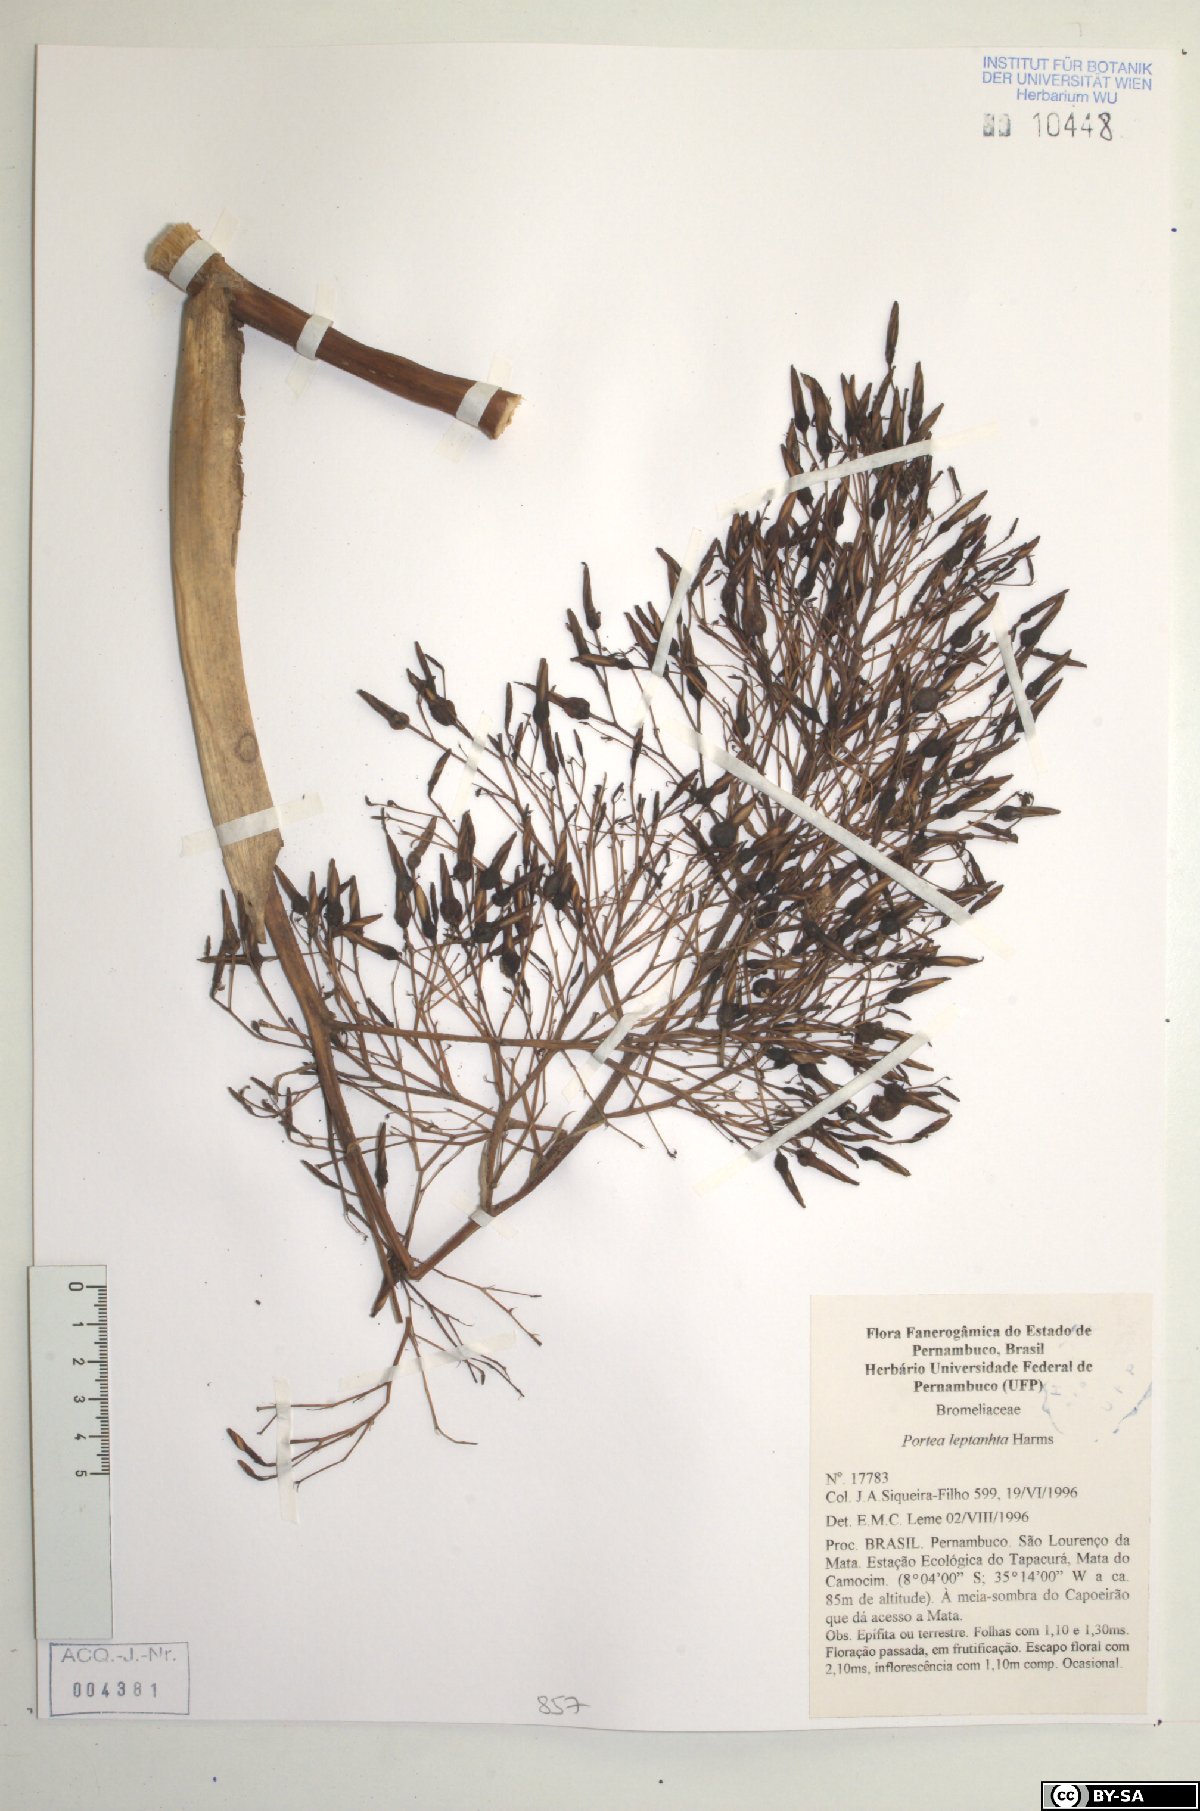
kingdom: Plantae
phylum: Tracheophyta
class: Liliopsida
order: Poales
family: Bromeliaceae
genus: Aechmea
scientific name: Aechmea leptantha
